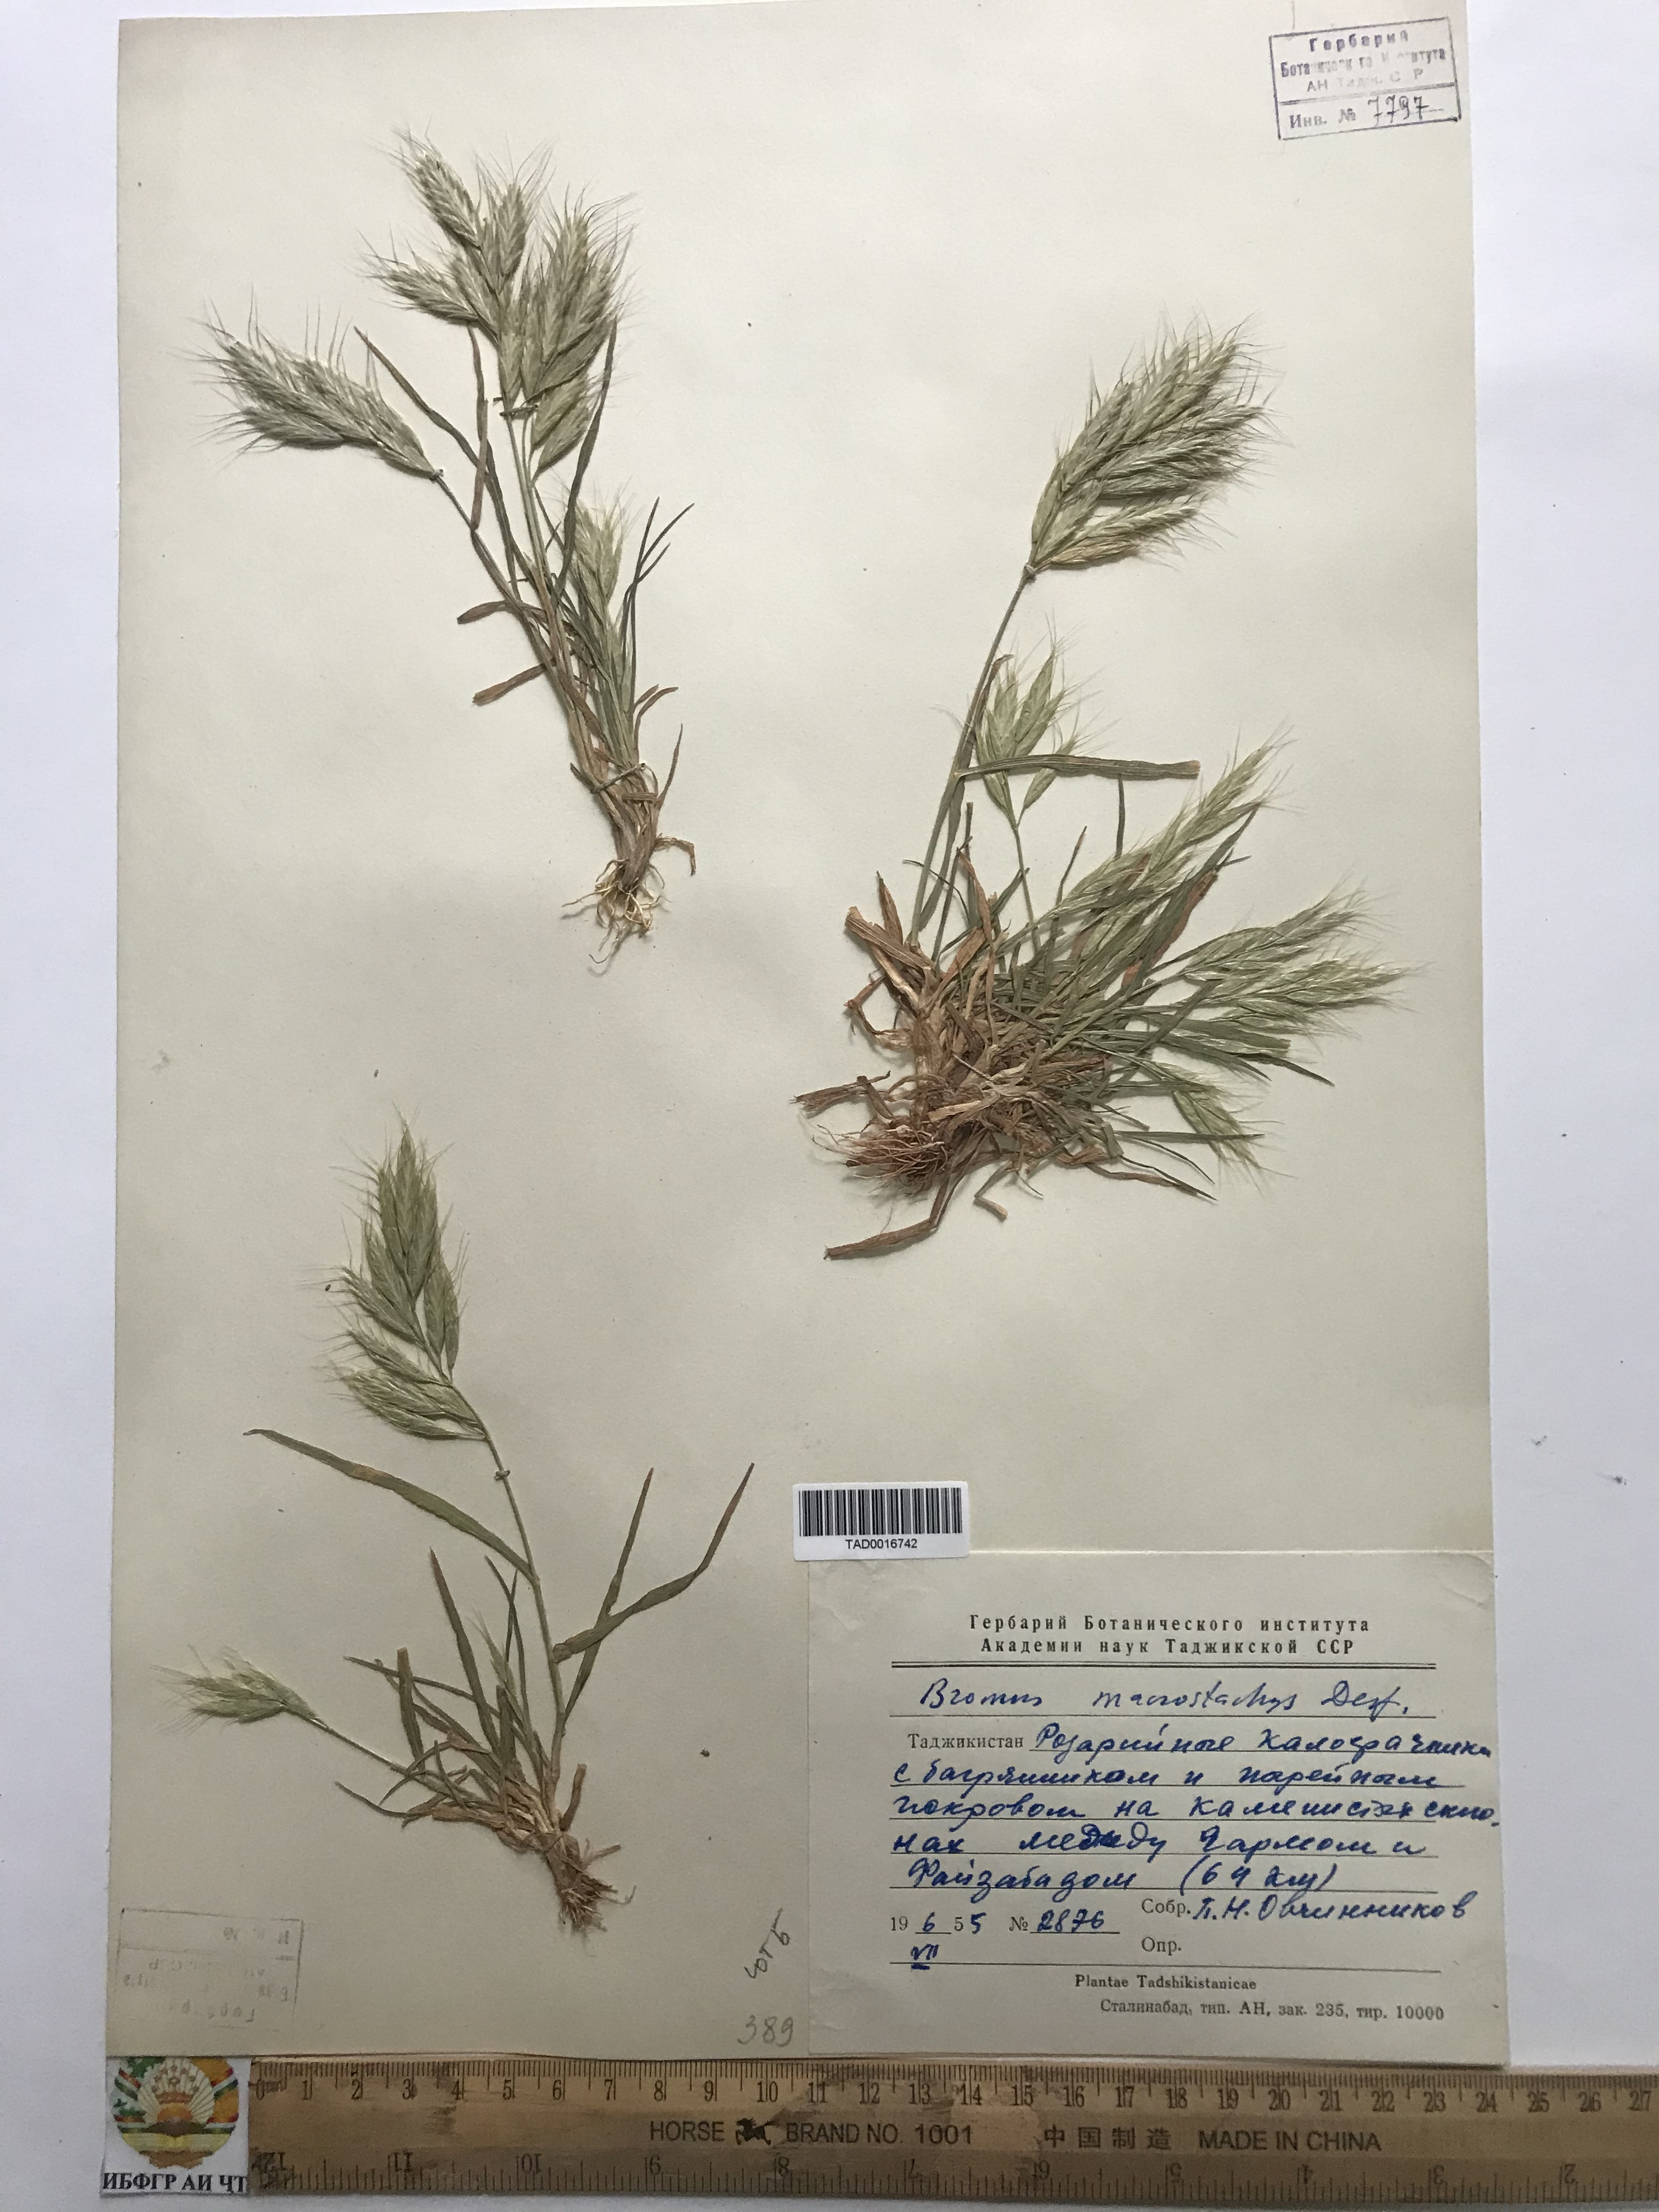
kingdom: Plantae
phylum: Tracheophyta
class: Liliopsida
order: Poales
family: Poaceae
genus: Bromus
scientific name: Bromus lanceolatus
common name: Mediterranean brome
